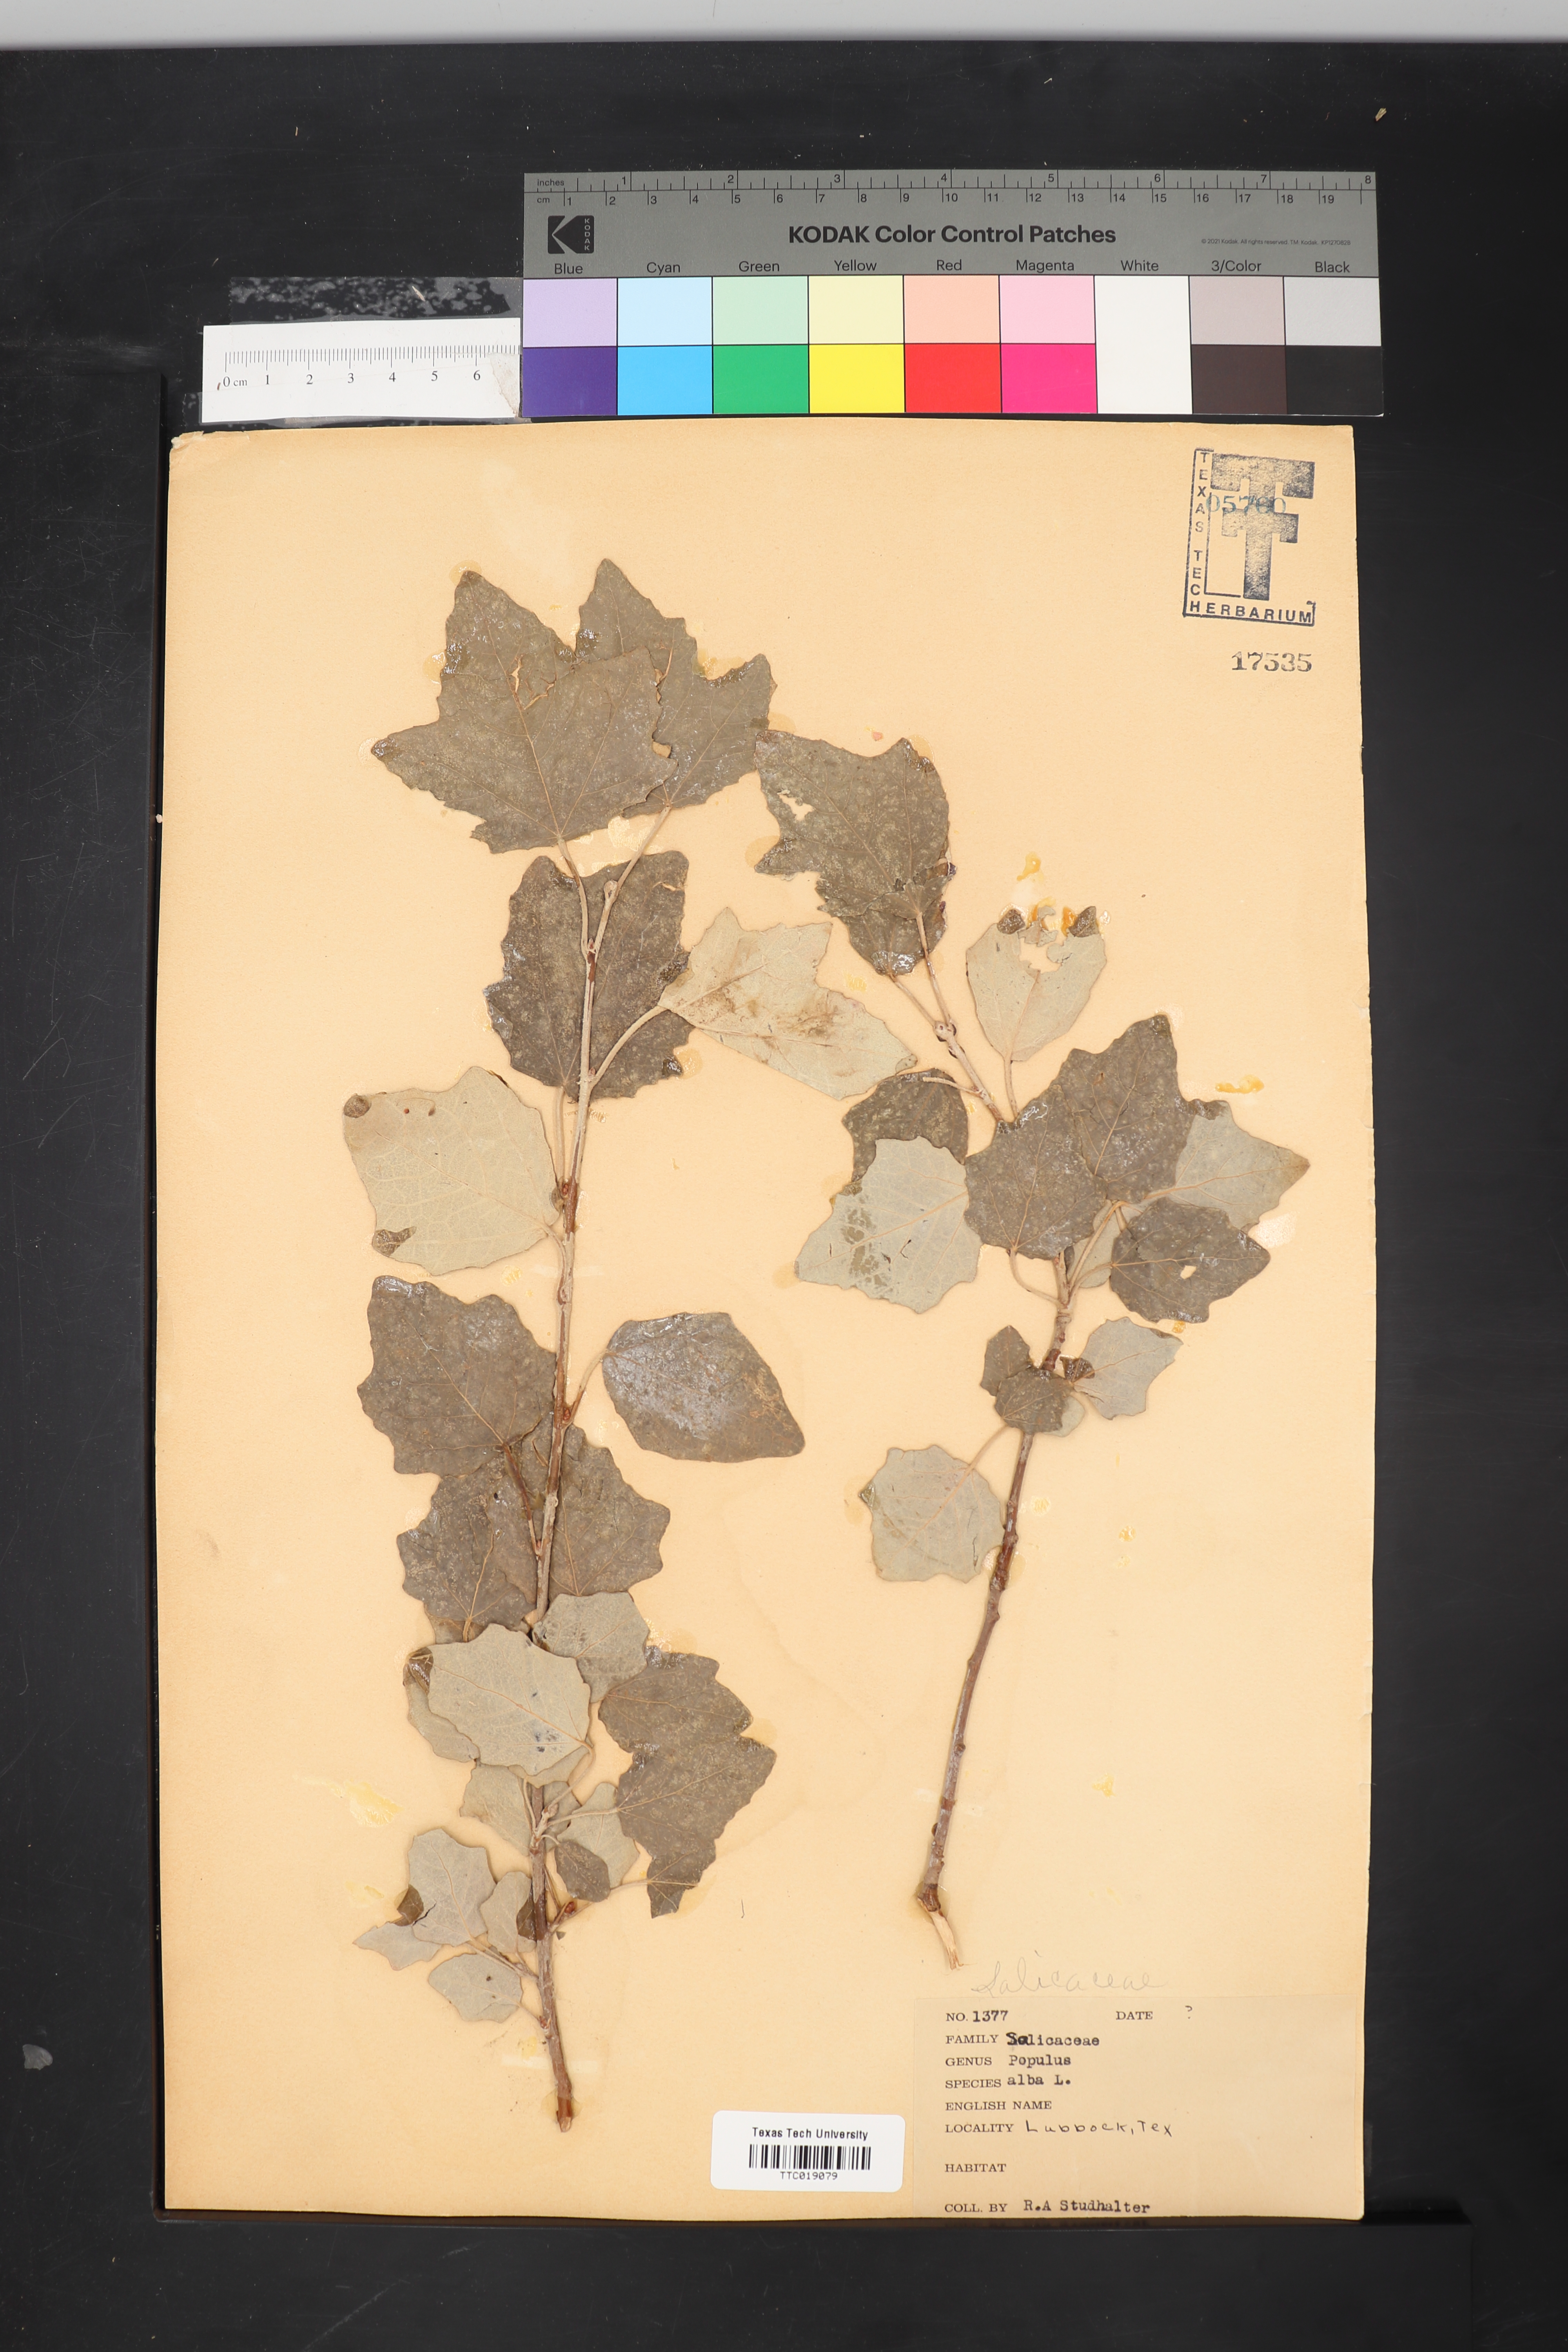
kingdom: Plantae
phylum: Tracheophyta
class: Magnoliopsida
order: Malpighiales
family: Salicaceae
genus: Populus
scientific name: Populus alba
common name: White poplar
